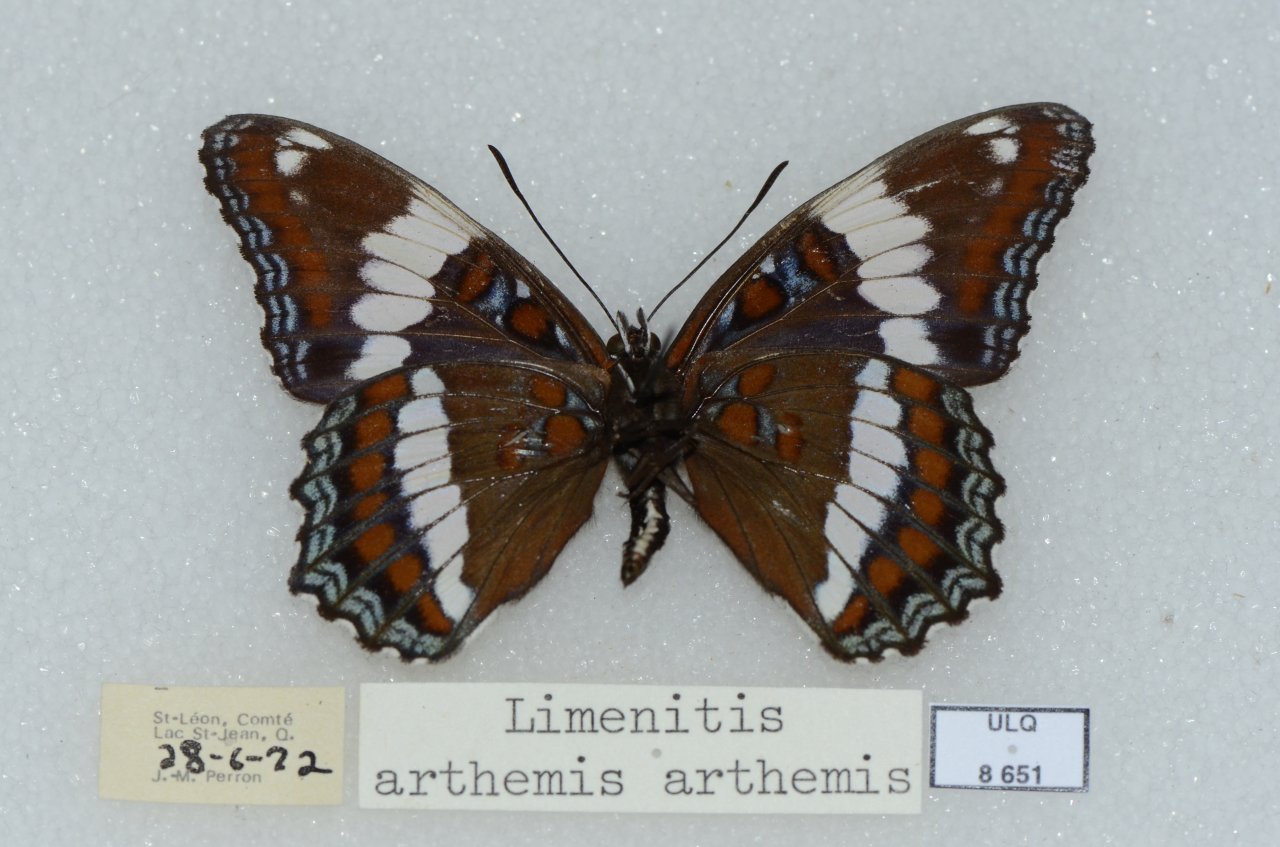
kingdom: Animalia
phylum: Arthropoda
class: Insecta
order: Lepidoptera
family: Nymphalidae
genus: Limenitis
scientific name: Limenitis arthemis
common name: Red-spotted Admiral
